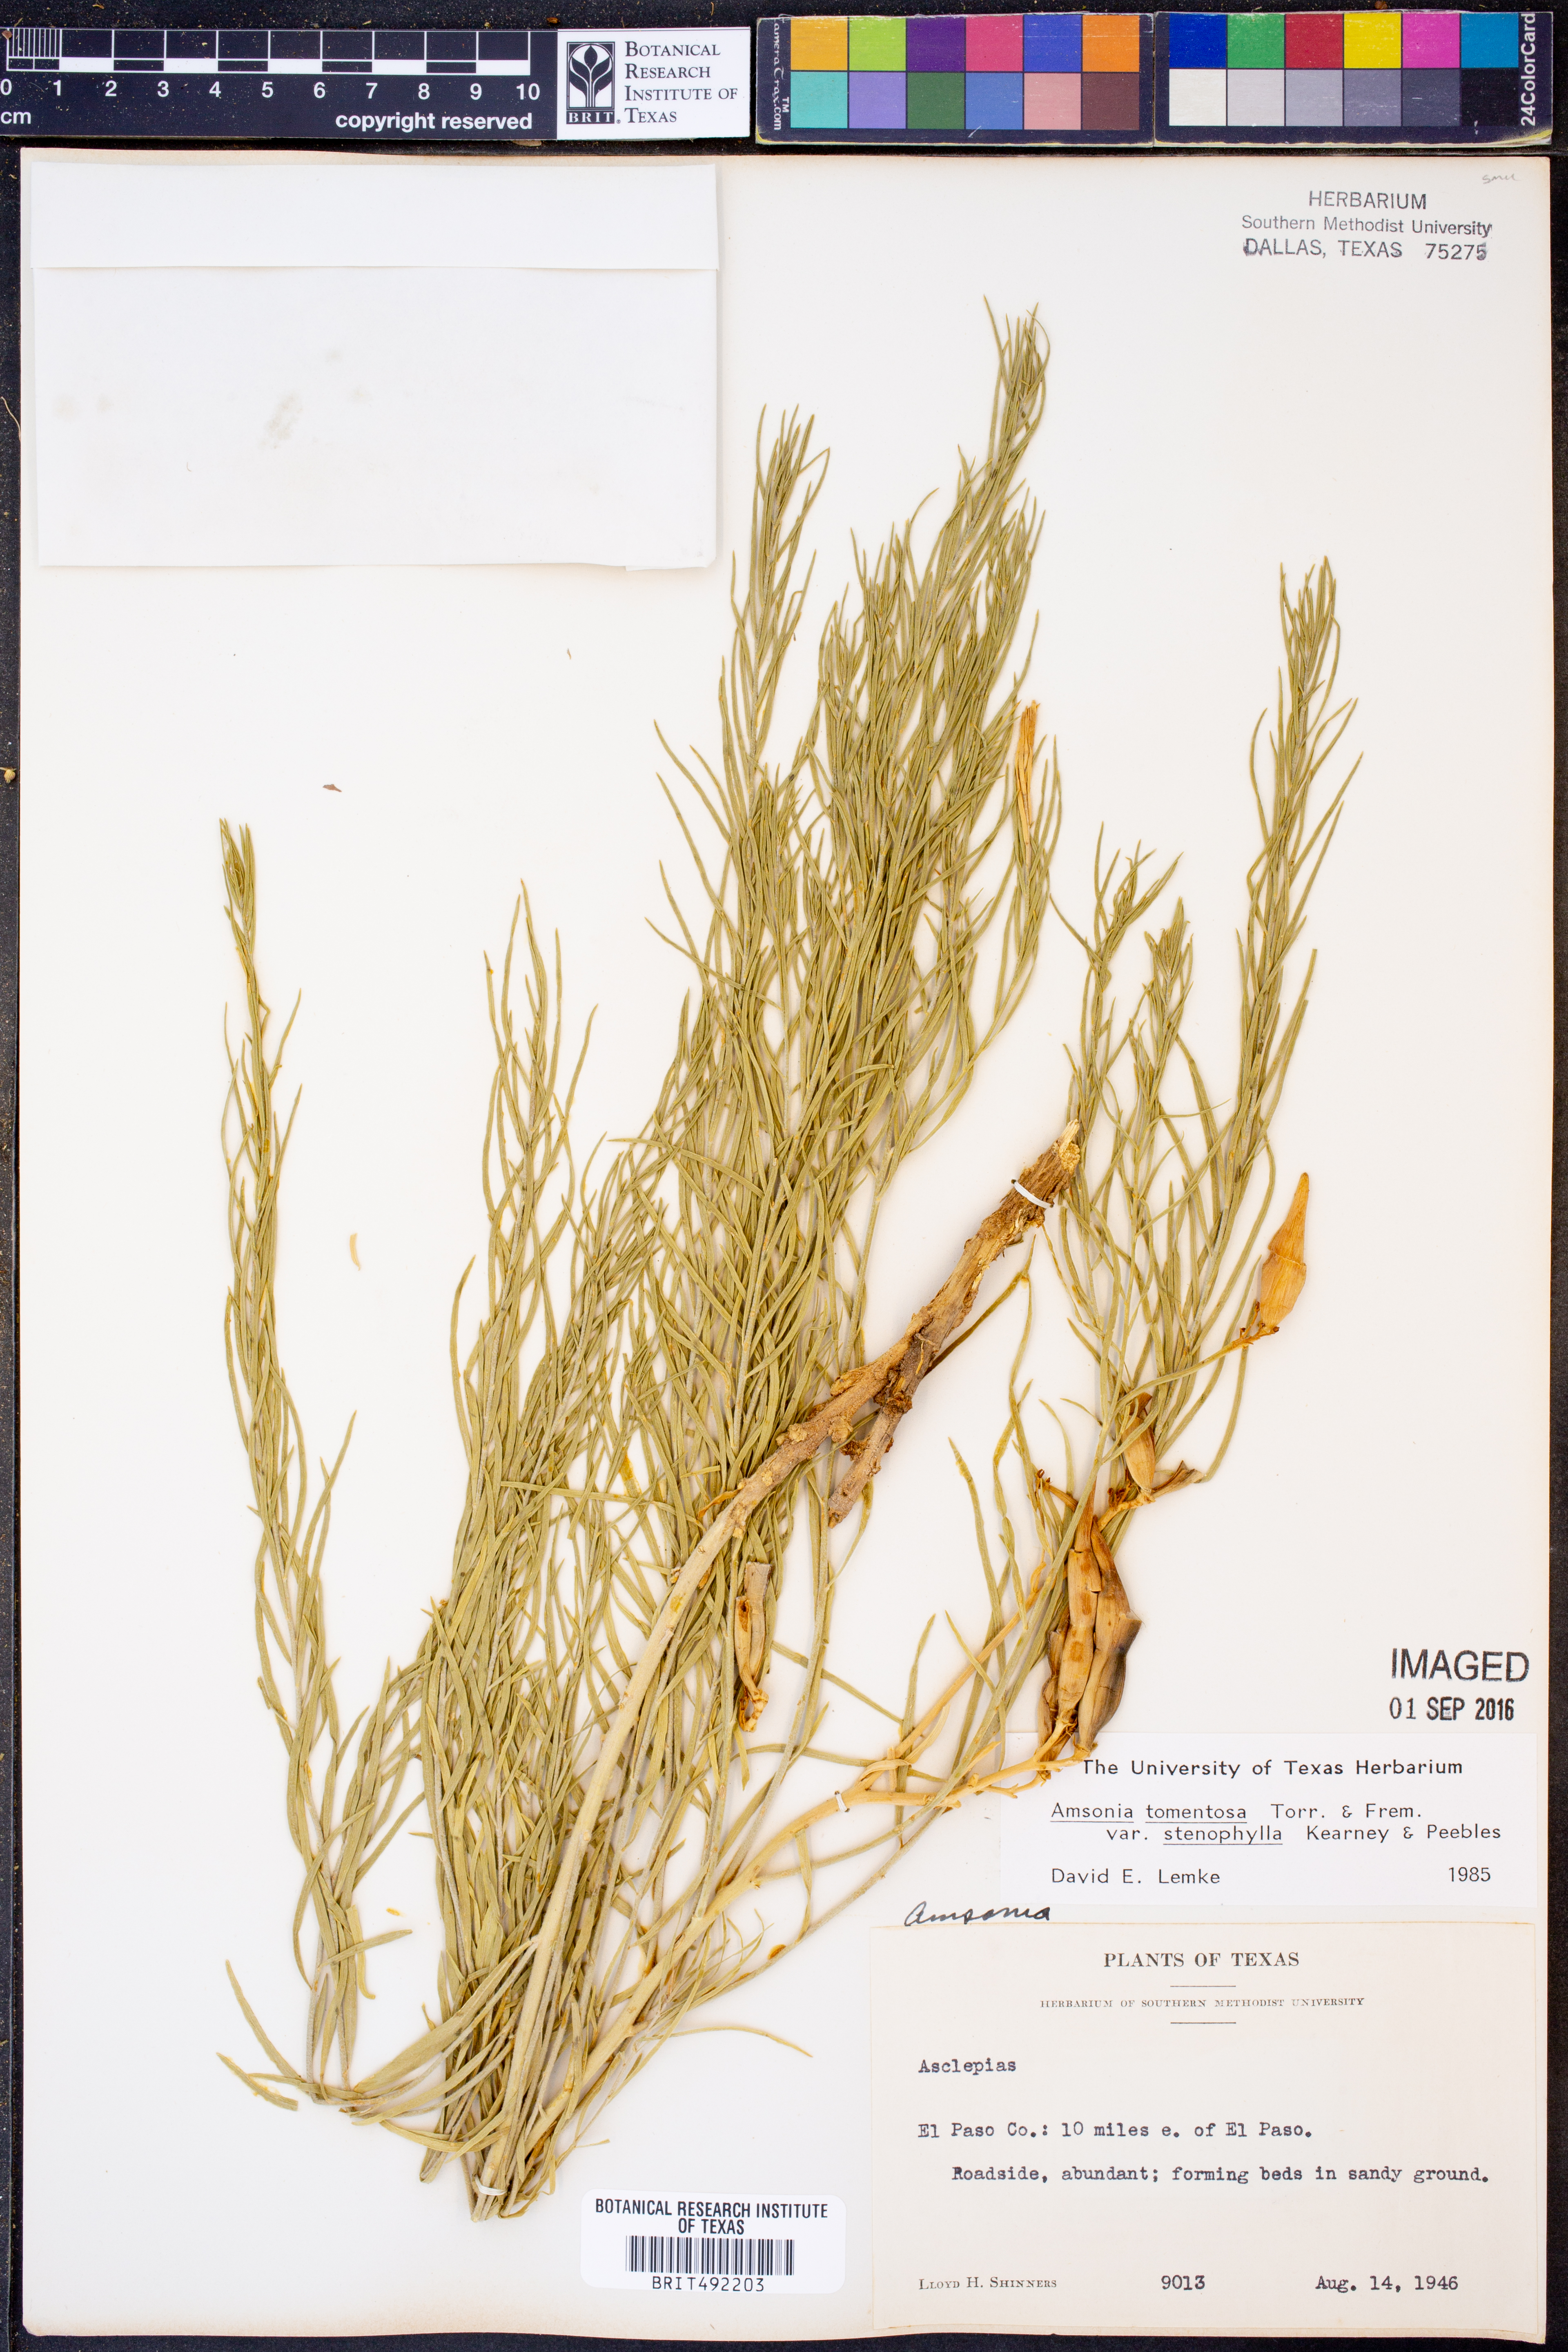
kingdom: Plantae
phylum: Tracheophyta
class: Magnoliopsida
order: Gentianales
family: Apocynaceae
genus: Amsonia
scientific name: Amsonia tomentosa
